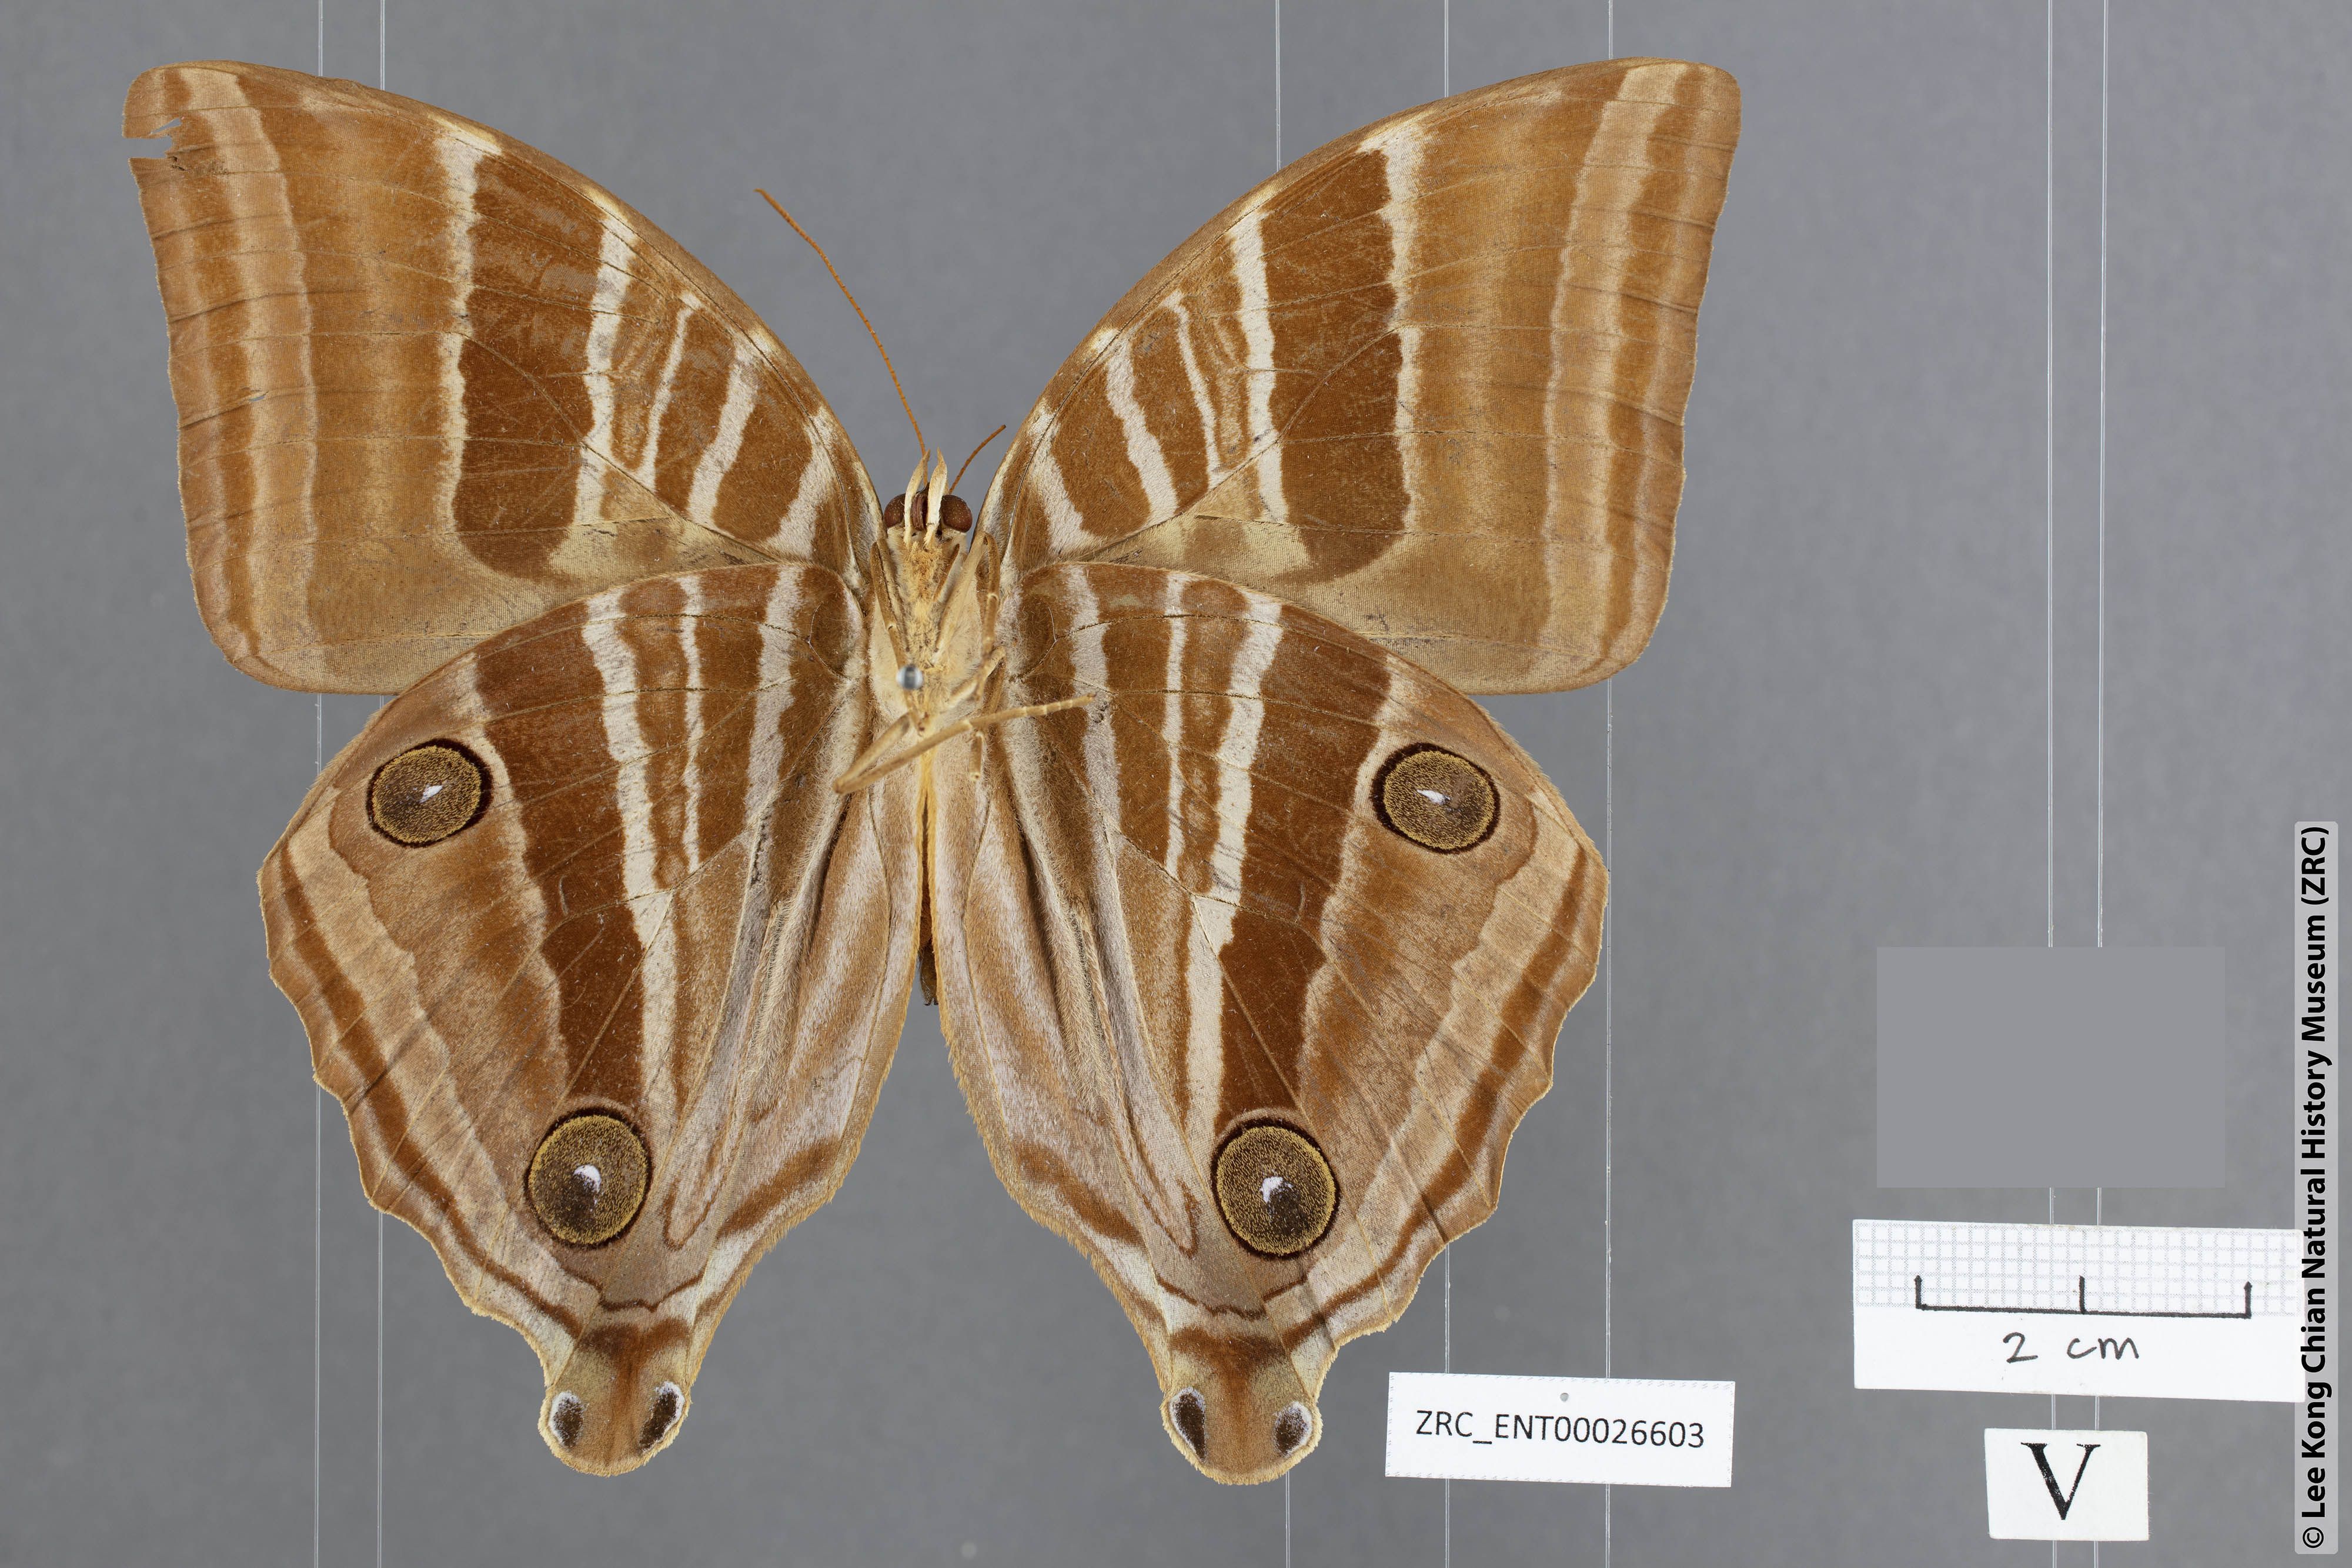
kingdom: Animalia
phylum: Arthropoda
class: Insecta
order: Lepidoptera
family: Nymphalidae
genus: Amathusia
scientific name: Amathusia friderici
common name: Bicolor-haired palm king
